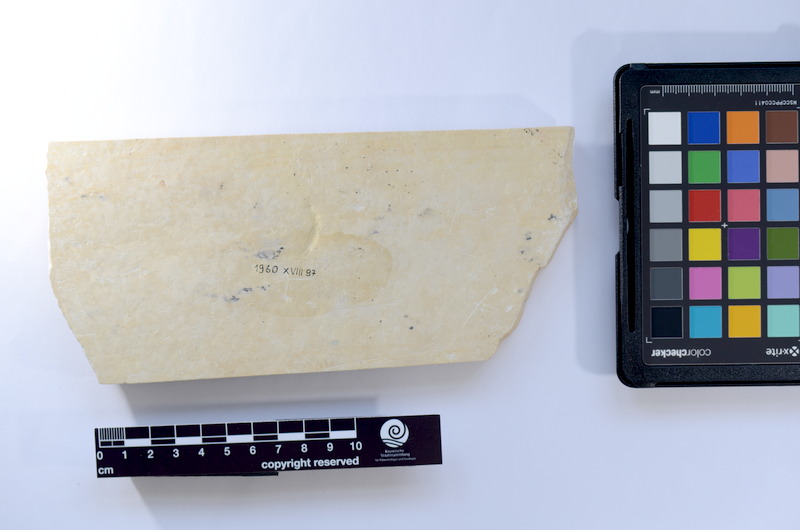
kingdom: Animalia
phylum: Chordata
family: Ascalaboidae
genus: Tharsis
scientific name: Tharsis dubius
